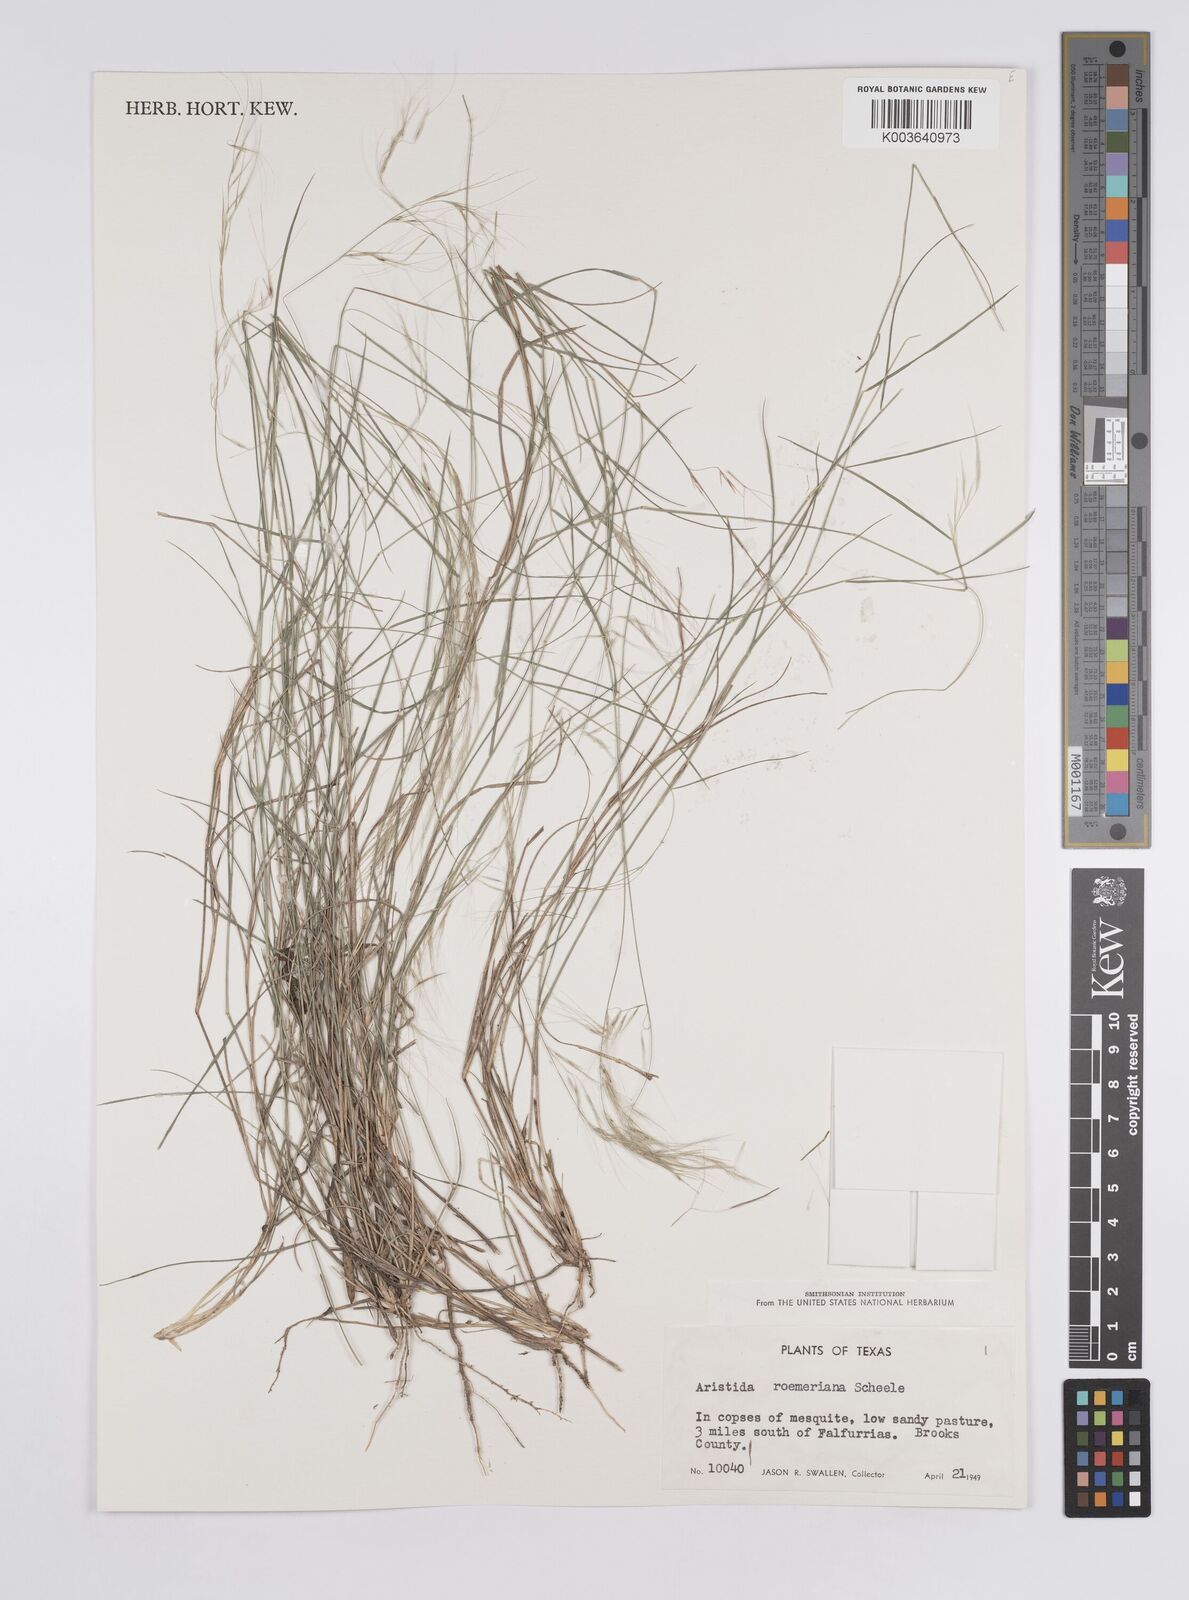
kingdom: Plantae
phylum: Tracheophyta
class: Liliopsida
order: Poales
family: Poaceae
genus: Aristida
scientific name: Aristida purpurea
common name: Purple threeawn
